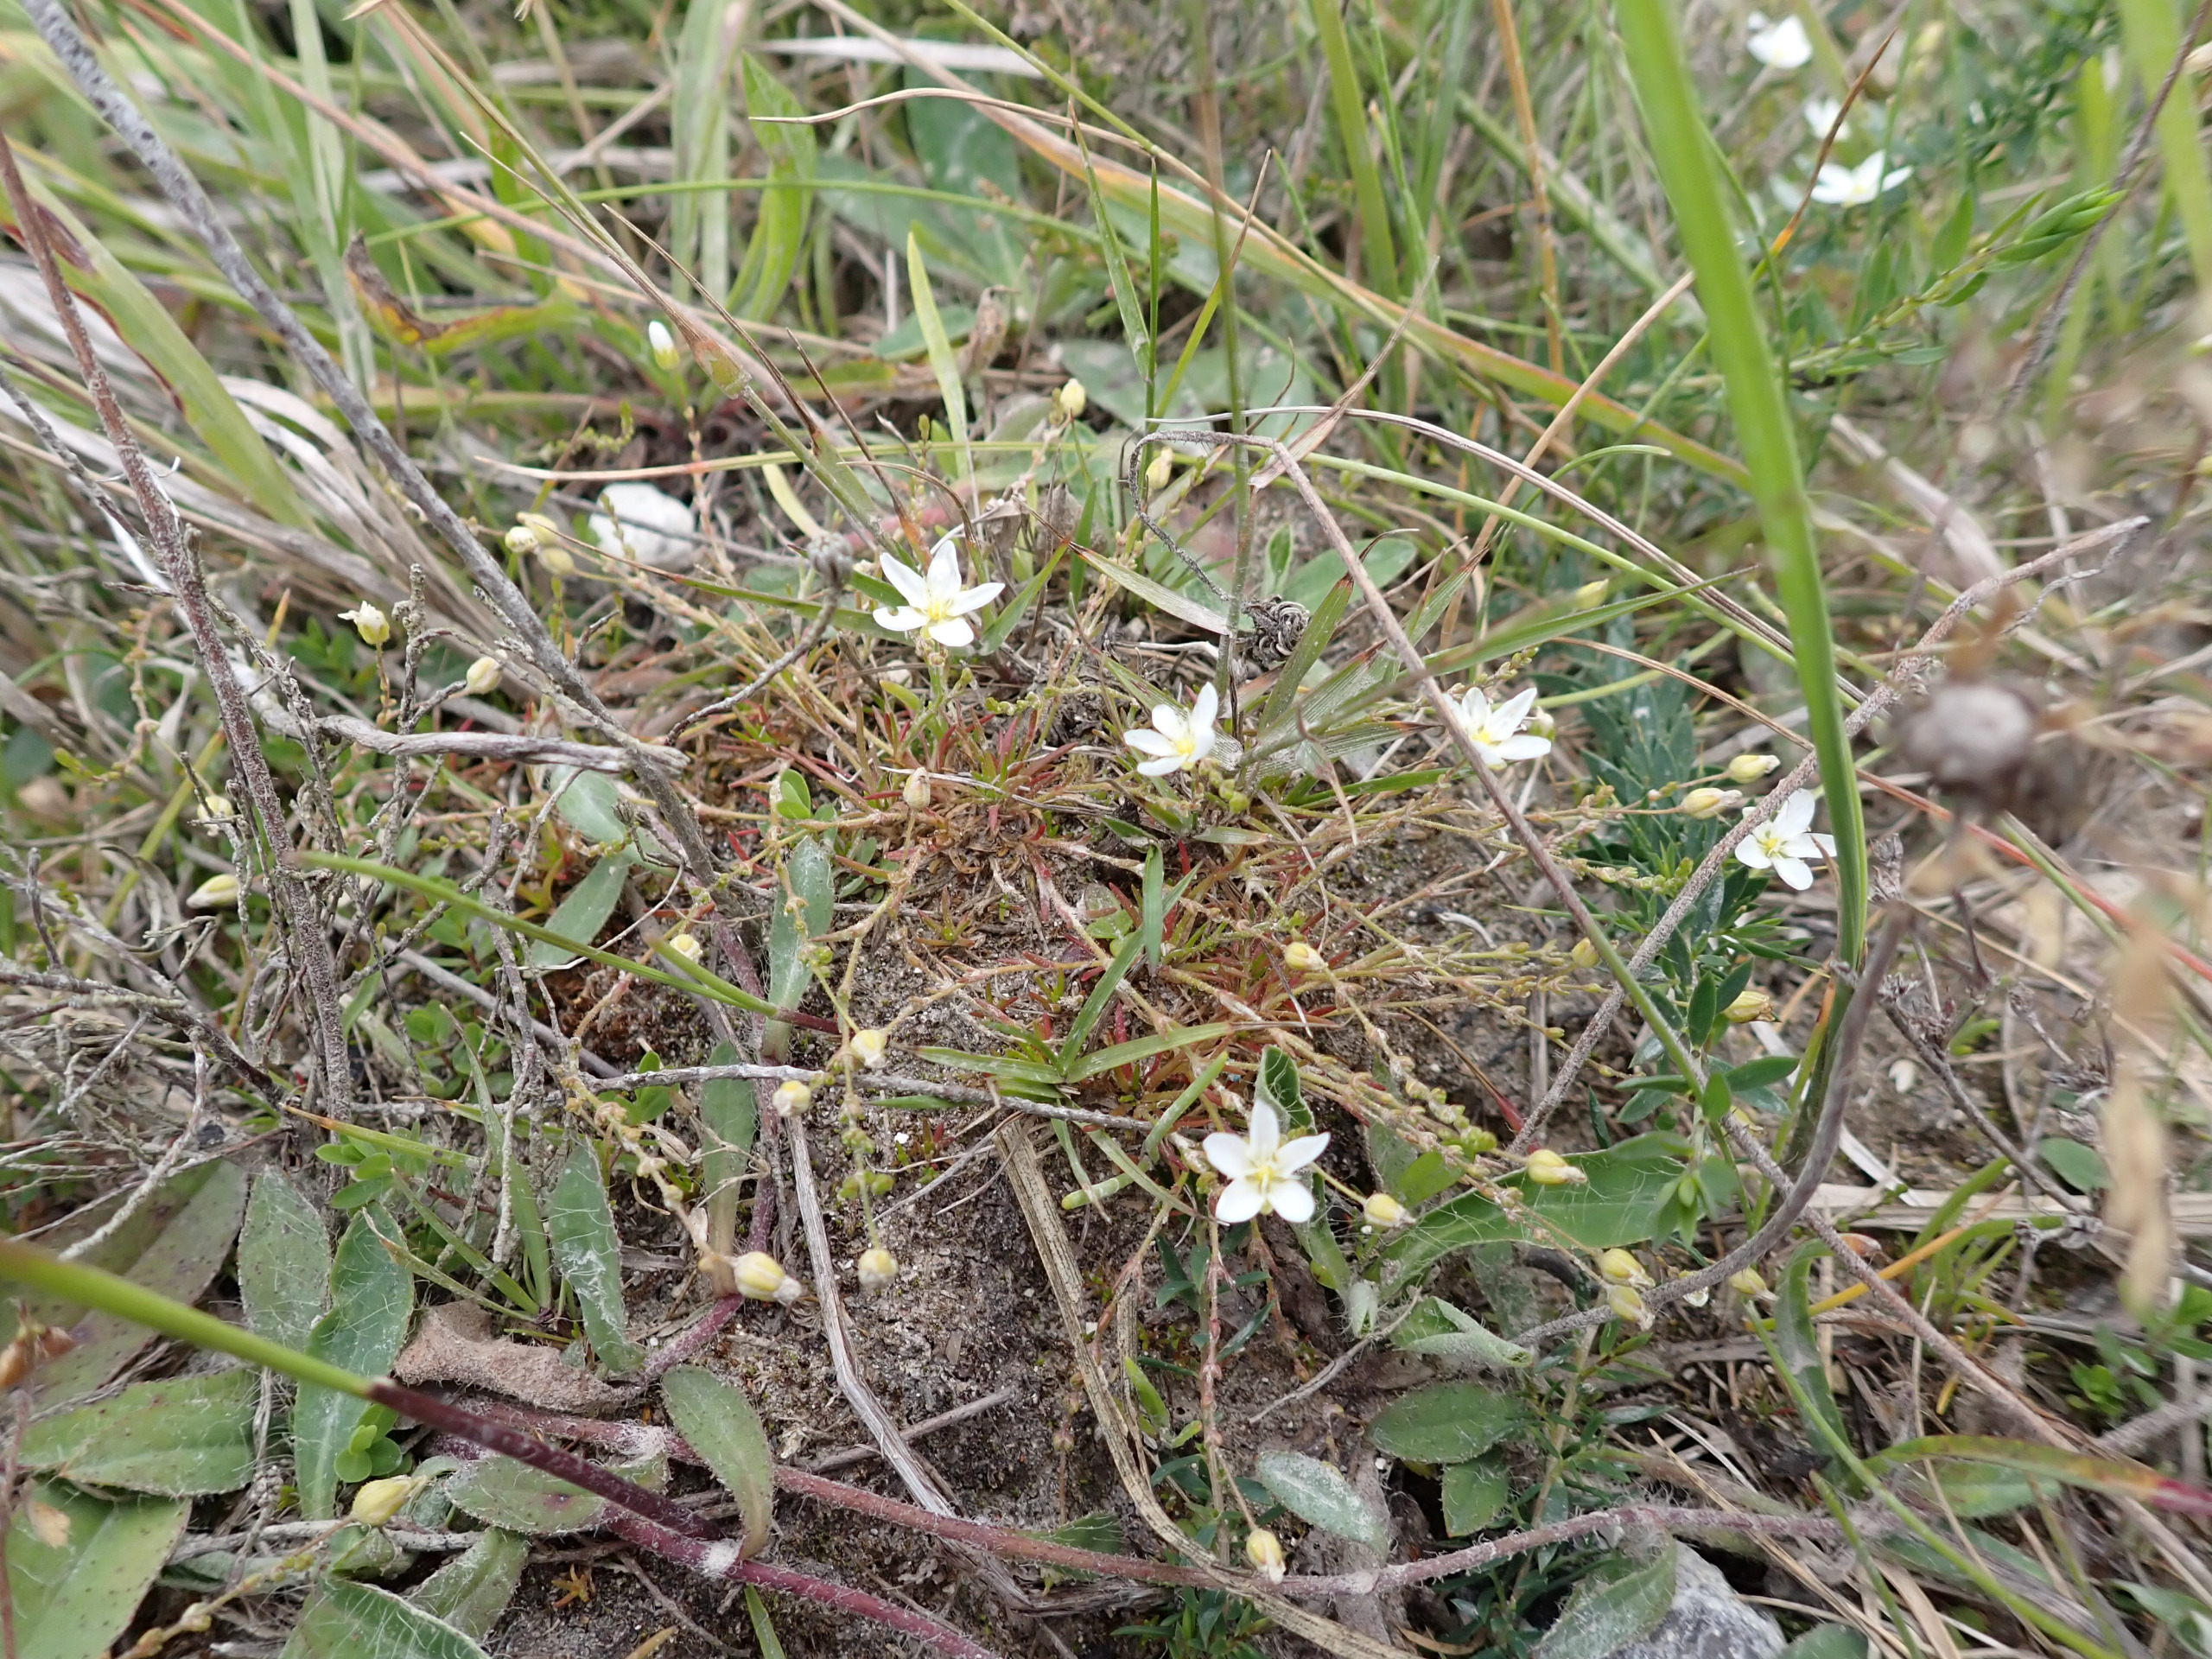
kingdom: Plantae
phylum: Tracheophyta
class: Magnoliopsida
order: Caryophyllales
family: Caryophyllaceae
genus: Sagina
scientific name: Sagina nodosa
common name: Knude-firling
